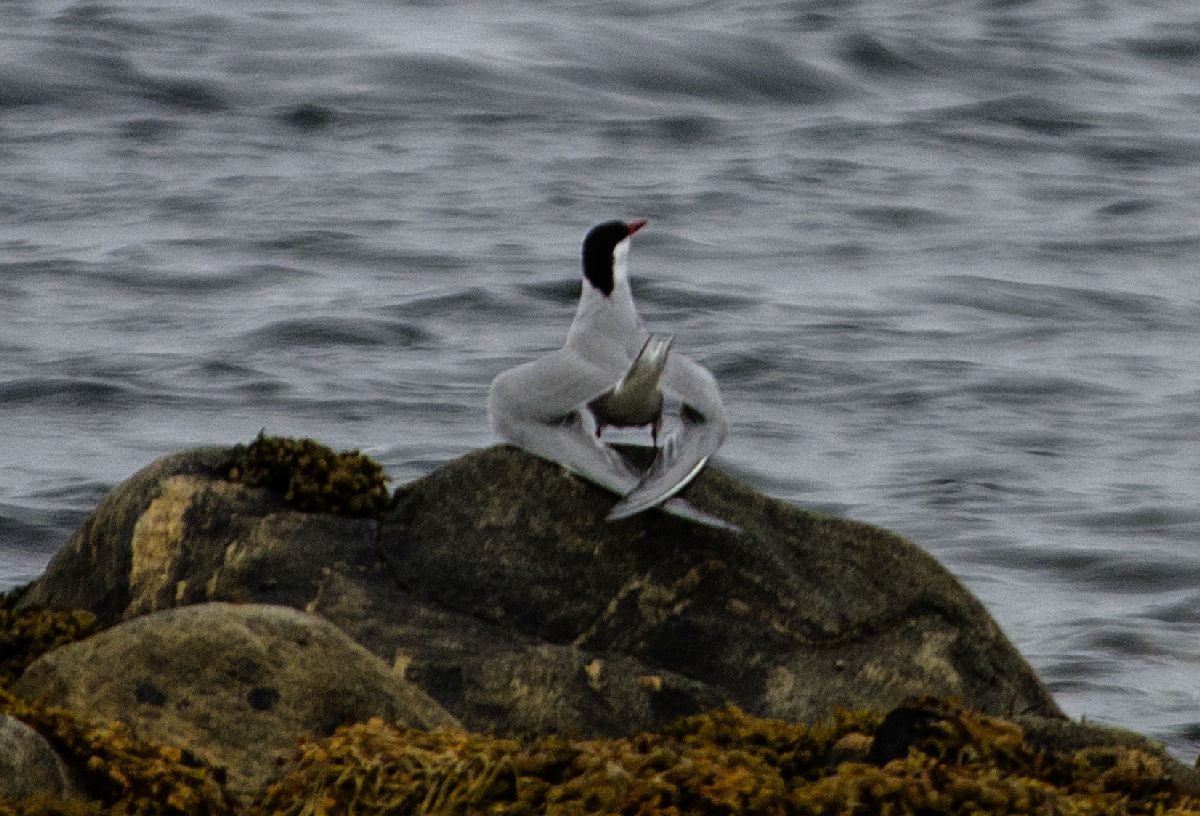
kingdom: Animalia
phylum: Chordata
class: Aves
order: Charadriiformes
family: Laridae
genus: Sterna
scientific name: Sterna paradisaea
